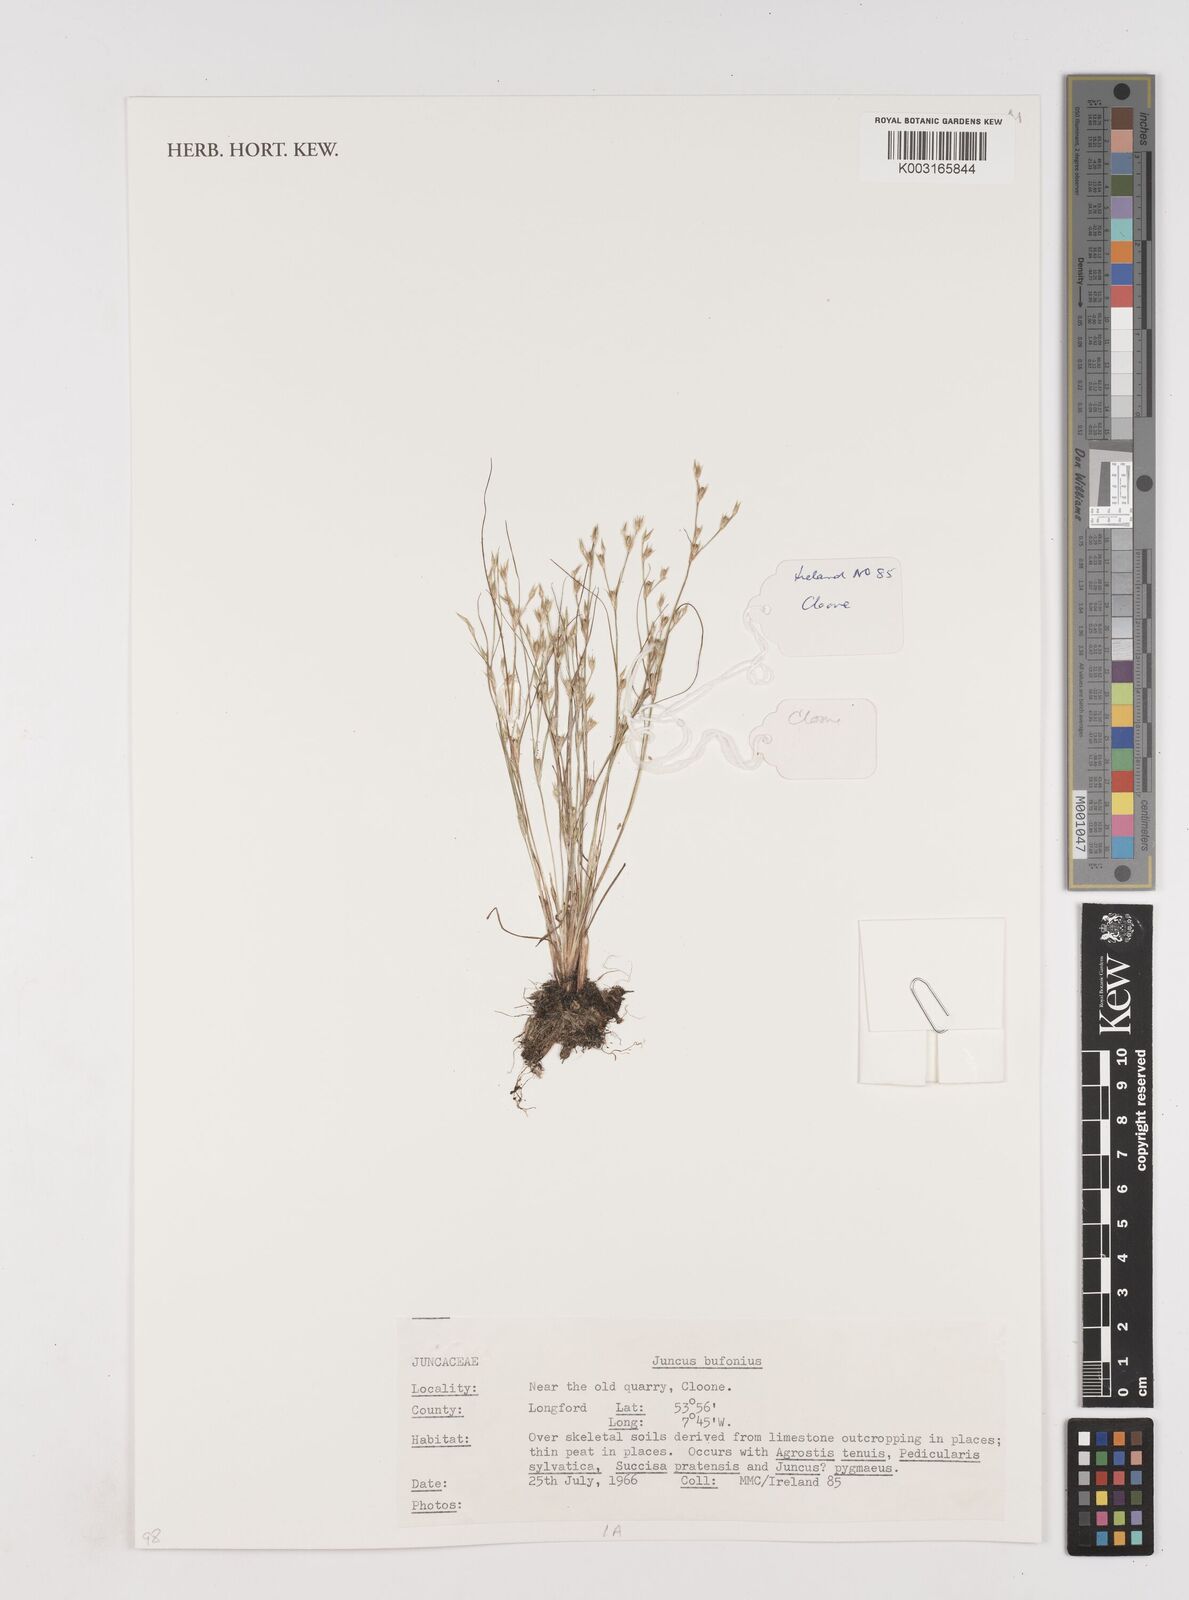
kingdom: Plantae
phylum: Tracheophyta
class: Liliopsida
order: Poales
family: Juncaceae
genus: Juncus
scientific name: Juncus bufonius
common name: Toad rush
